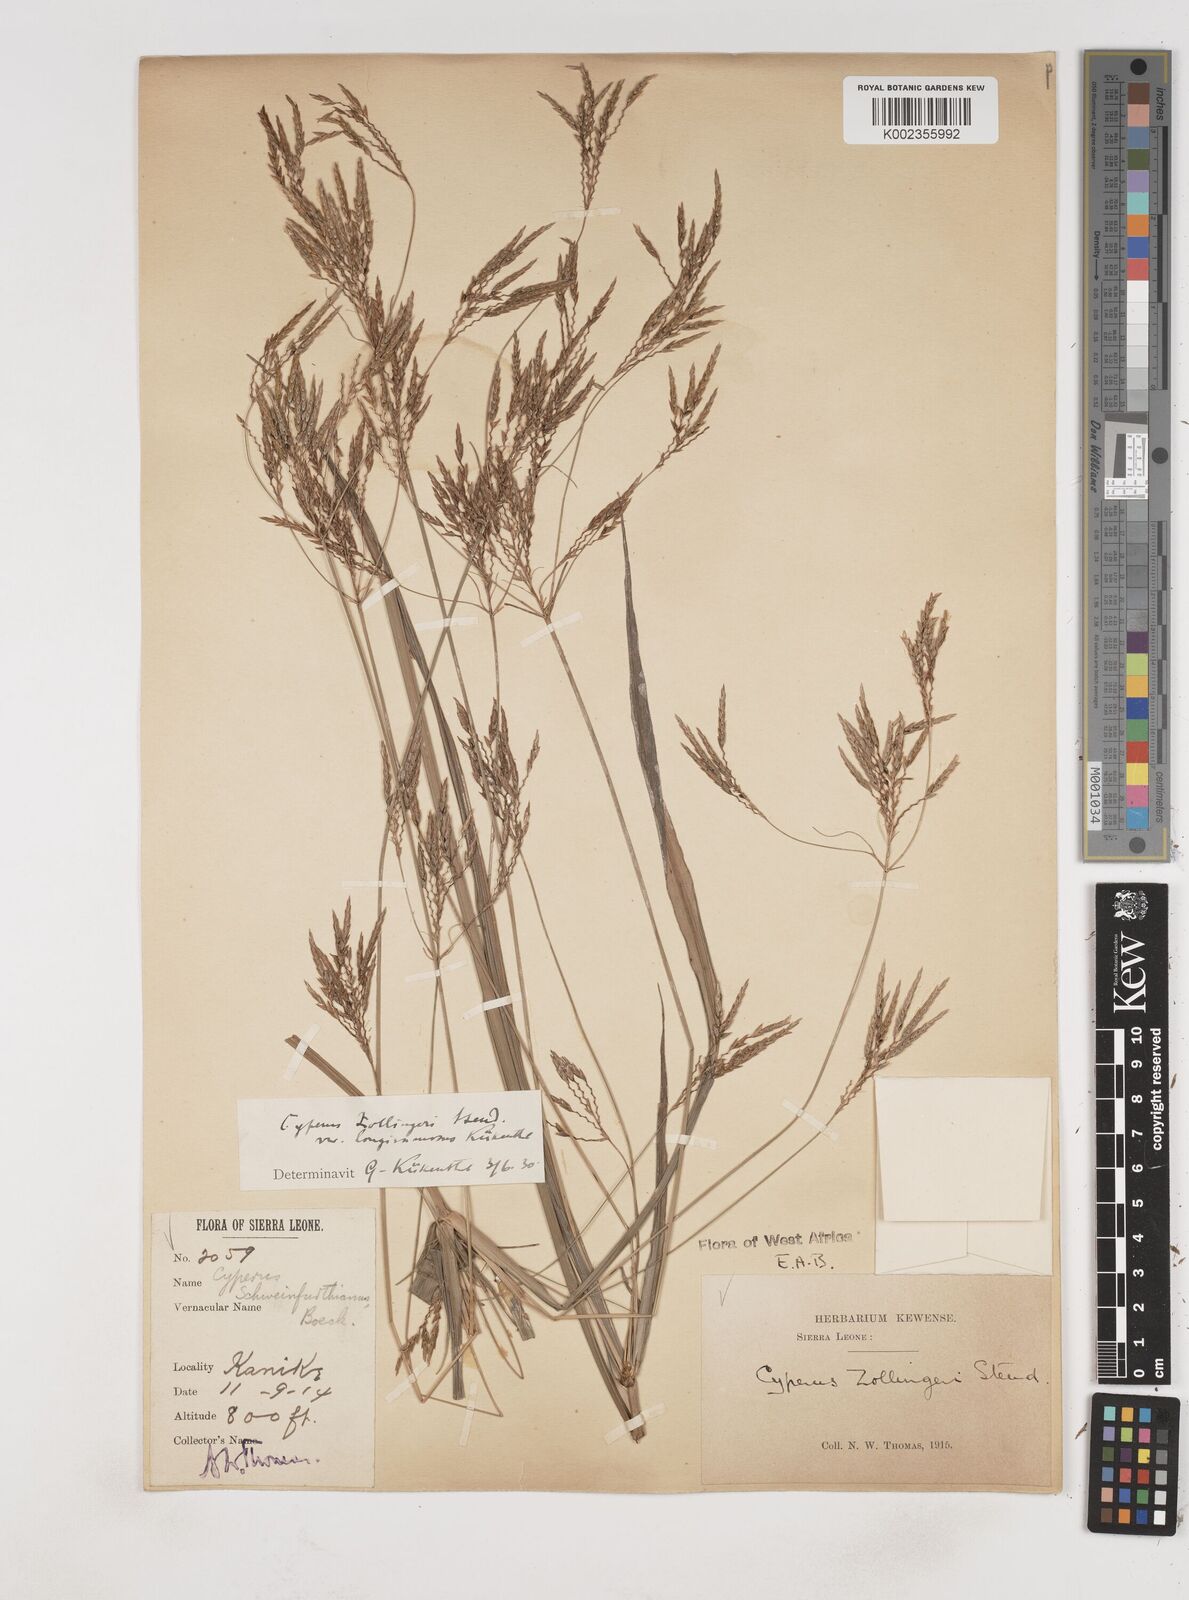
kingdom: Plantae
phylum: Tracheophyta
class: Liliopsida
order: Poales
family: Cyperaceae
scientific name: Cyperaceae
